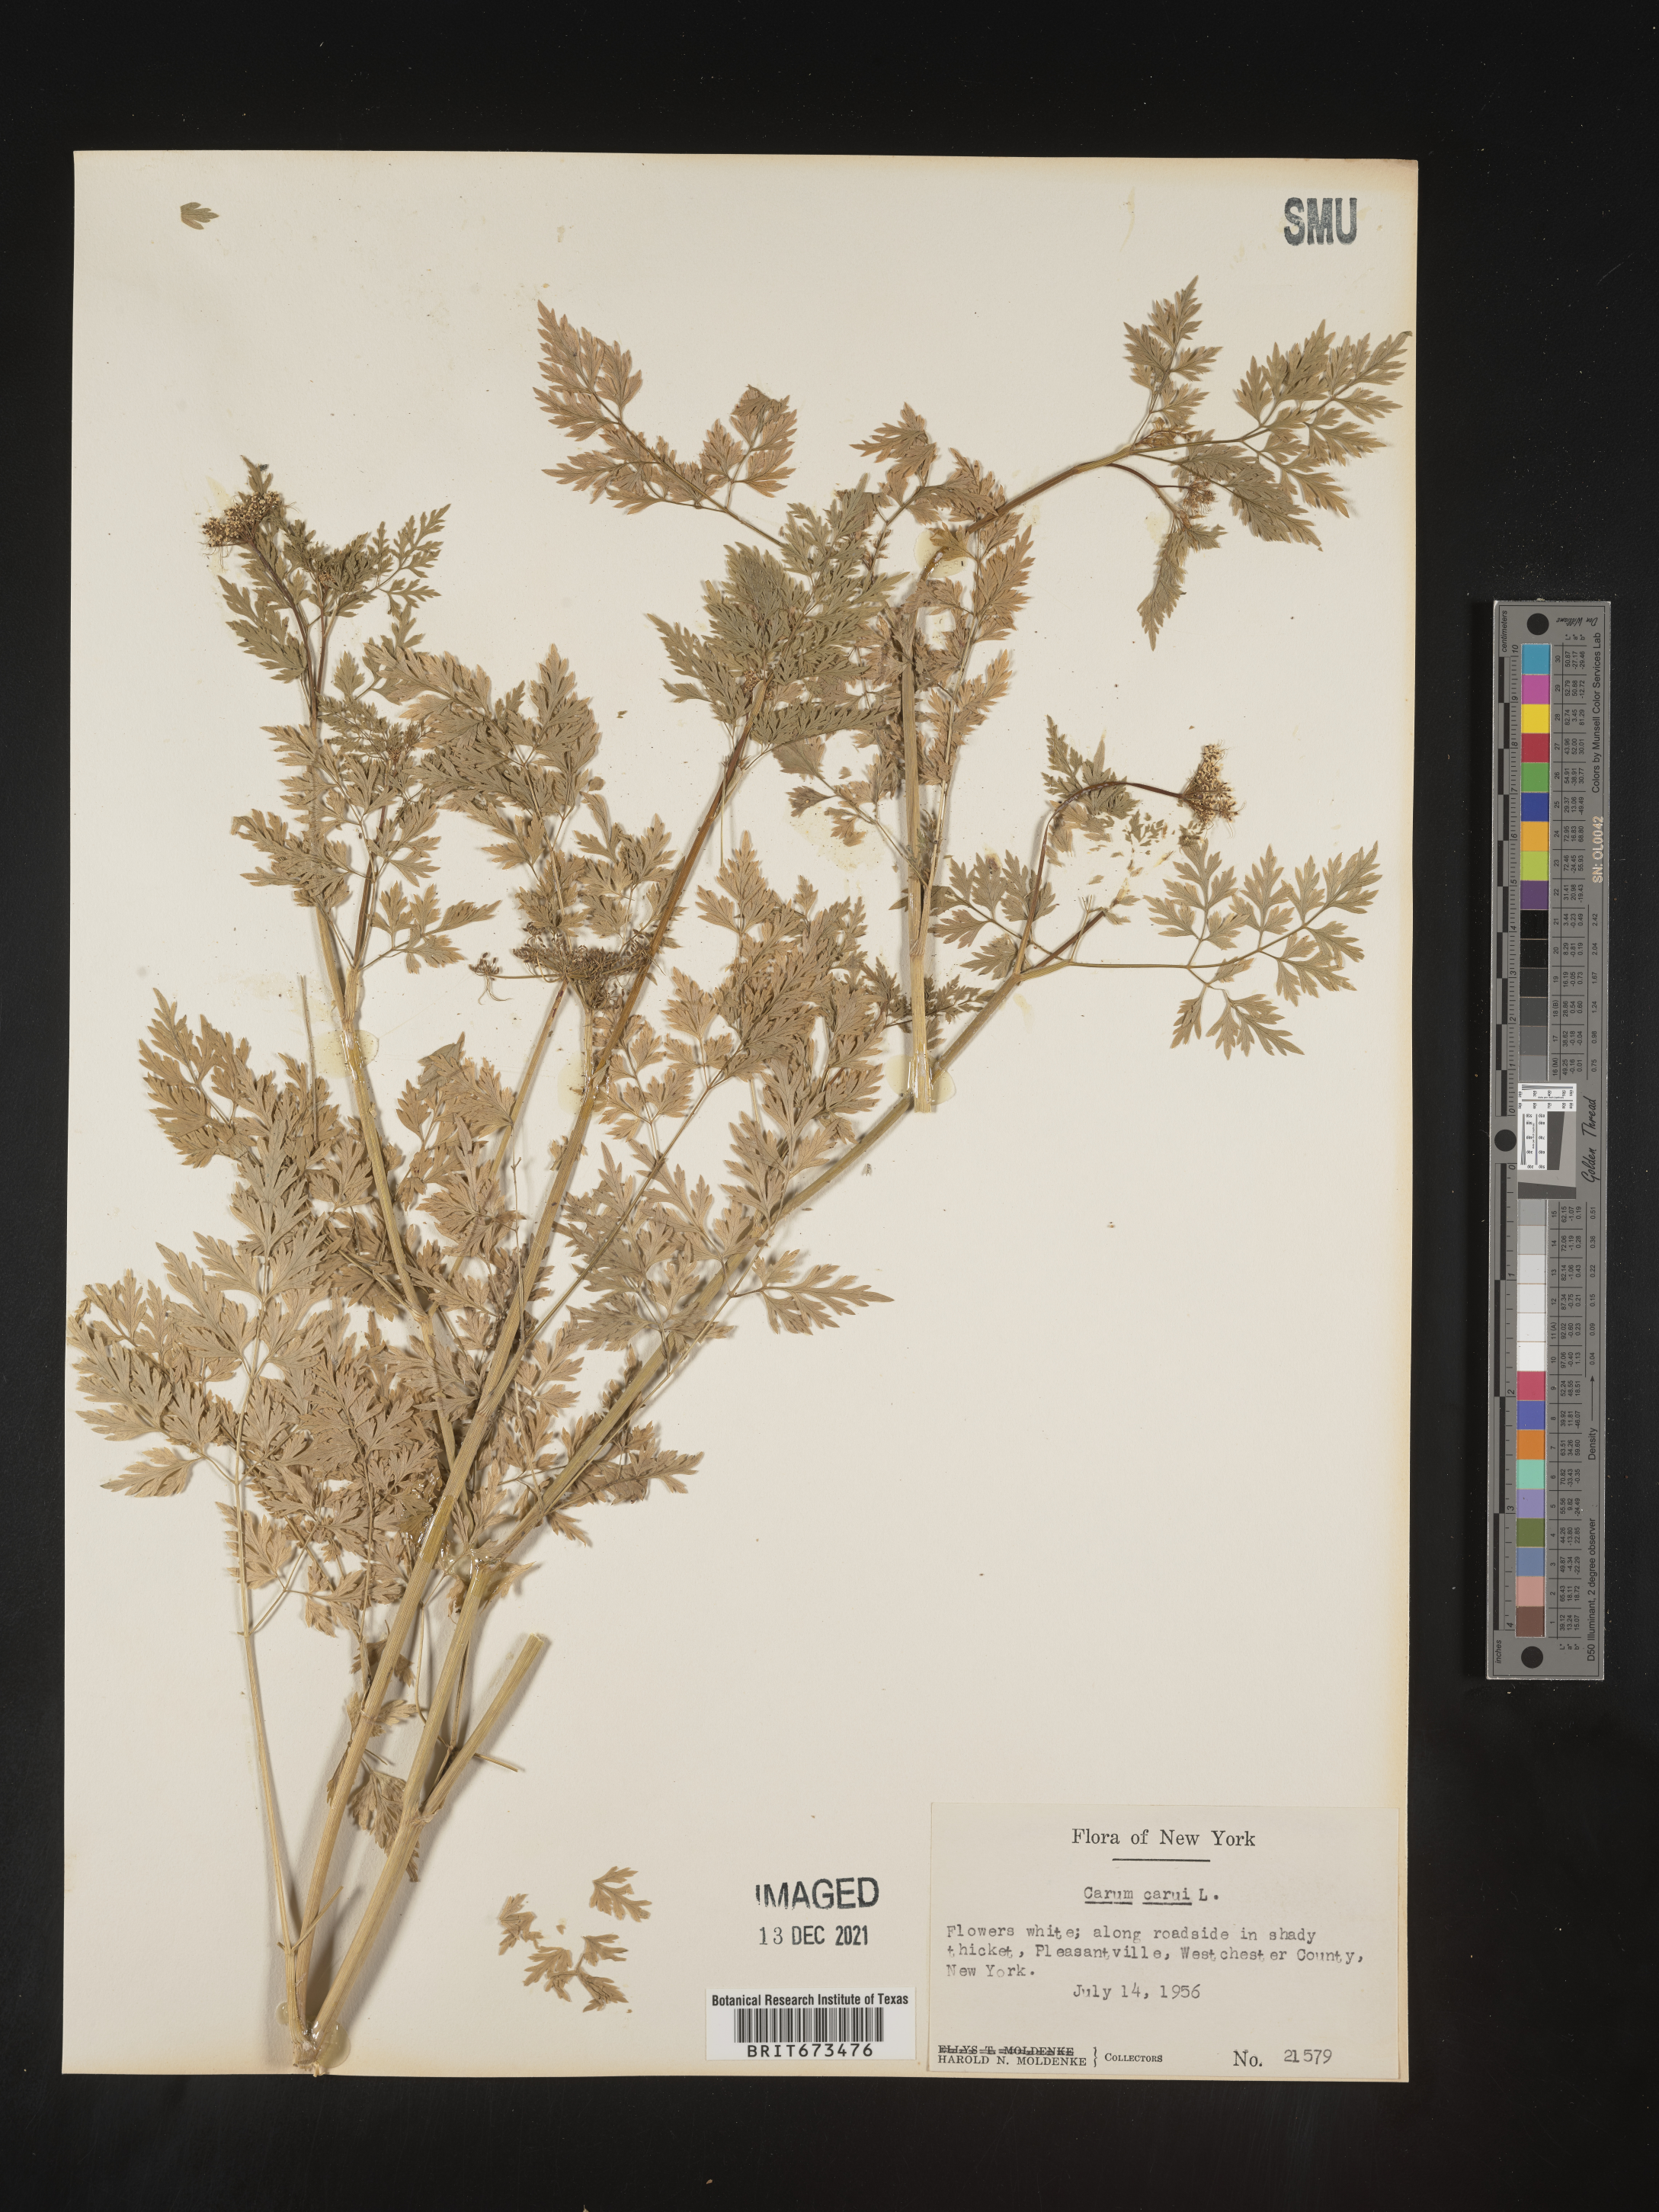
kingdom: Plantae
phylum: Tracheophyta
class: Magnoliopsida
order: Apiales
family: Apiaceae
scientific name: Apiaceae
